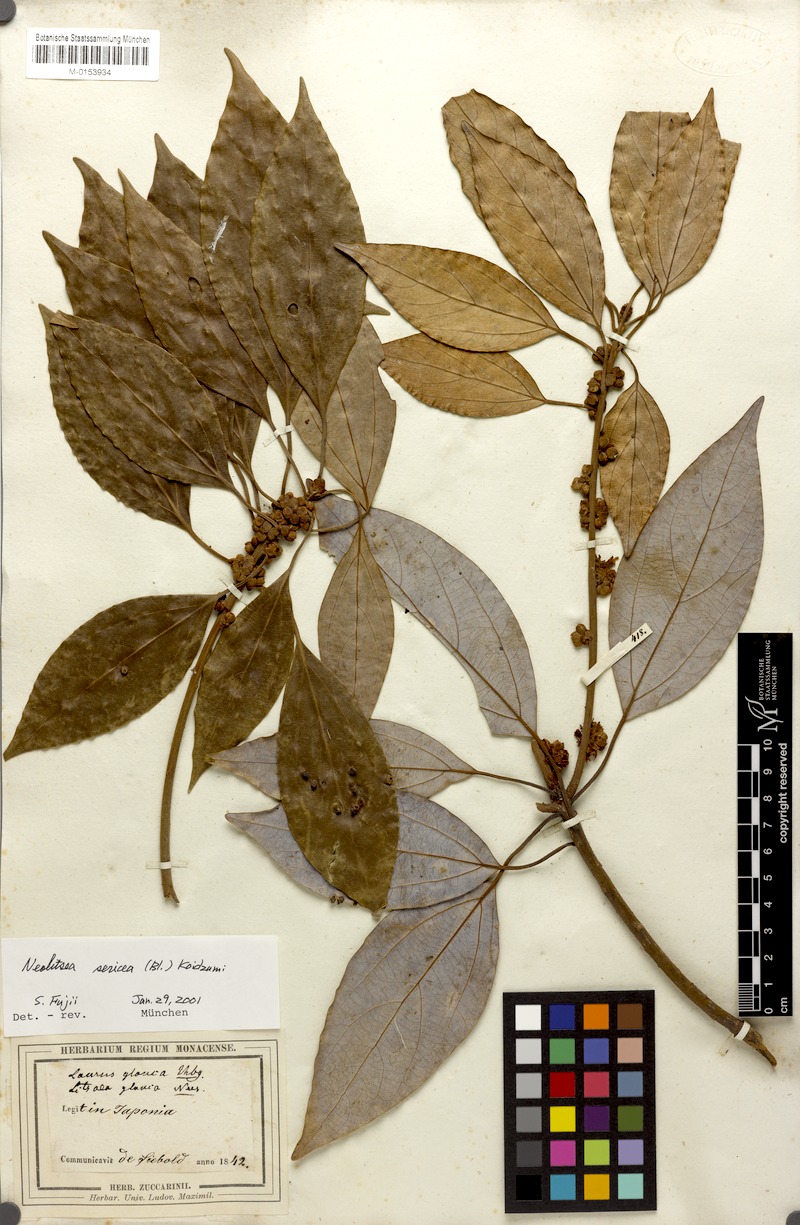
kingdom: Plantae
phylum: Tracheophyta
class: Magnoliopsida
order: Laurales
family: Lauraceae
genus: Neolitsea
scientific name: Neolitsea sericea
